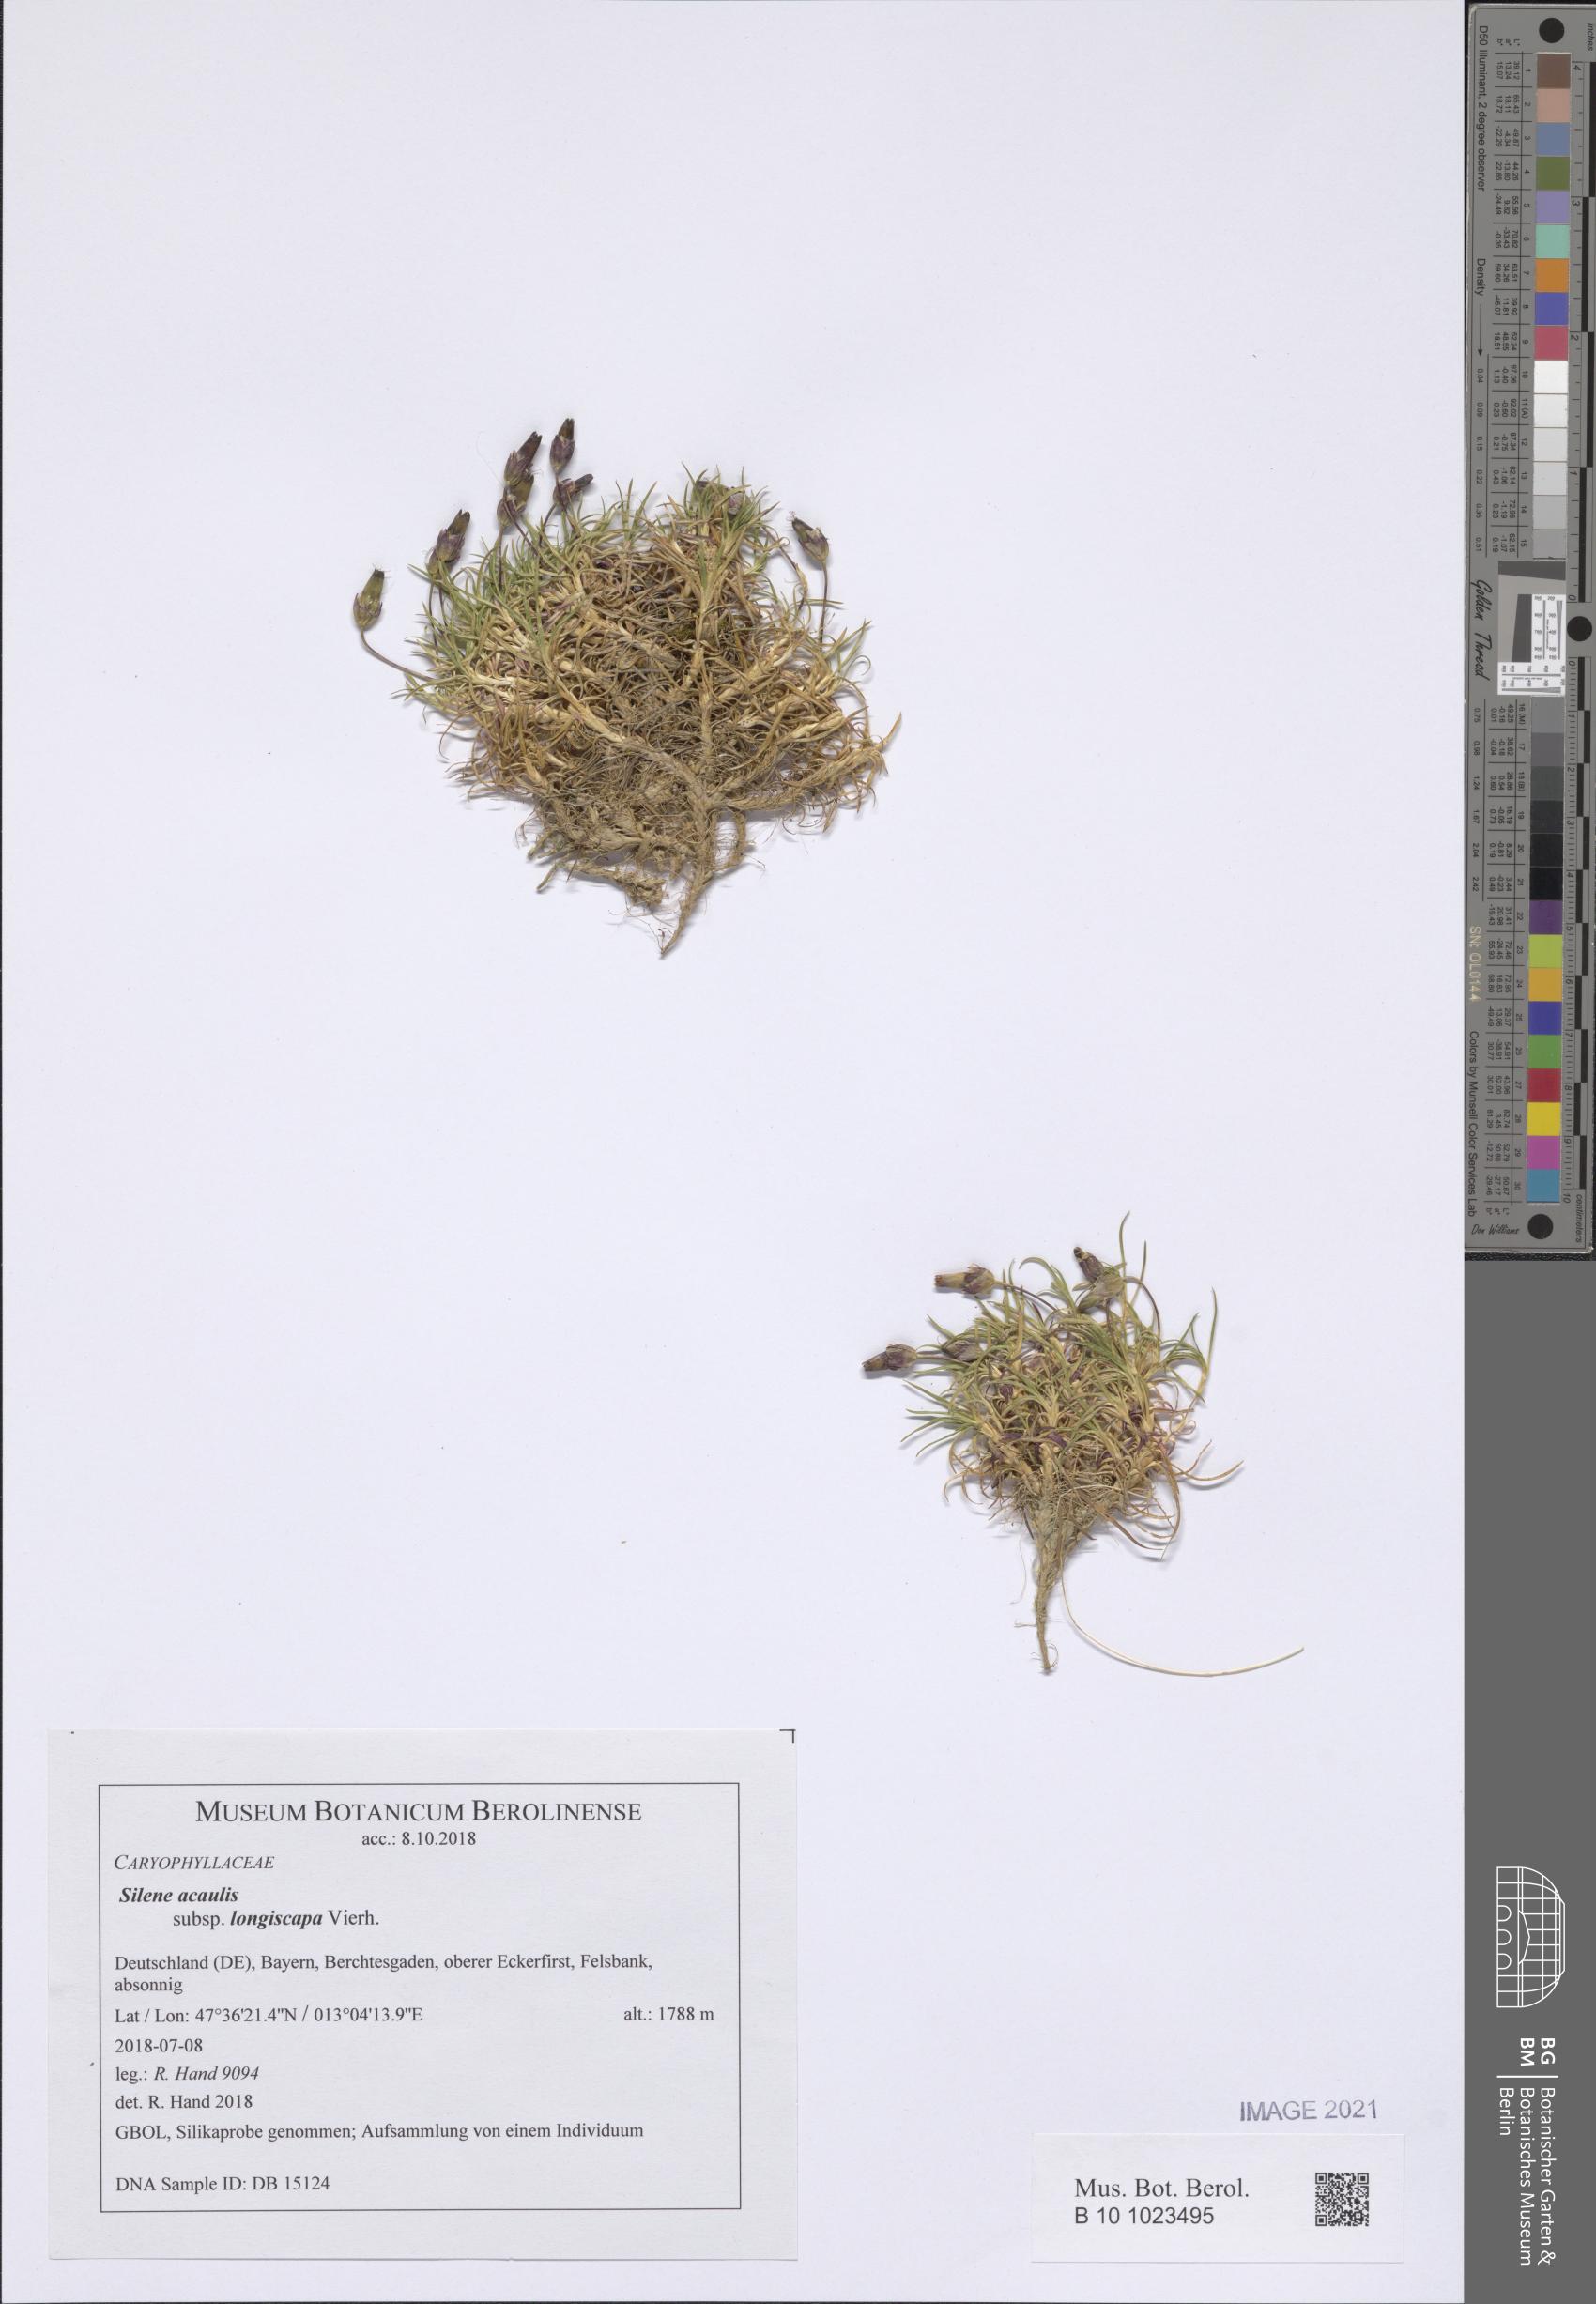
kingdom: Plantae
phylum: Tracheophyta
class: Magnoliopsida
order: Caryophyllales
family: Caryophyllaceae
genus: Silene
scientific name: Silene acaulis
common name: Moss campion
